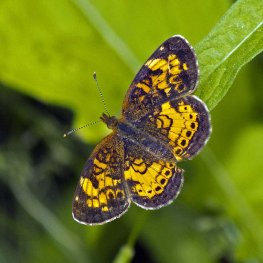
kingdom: Animalia
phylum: Arthropoda
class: Insecta
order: Lepidoptera
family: Nymphalidae
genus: Phyciodes
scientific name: Phyciodes tharos
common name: Northern Crescent
